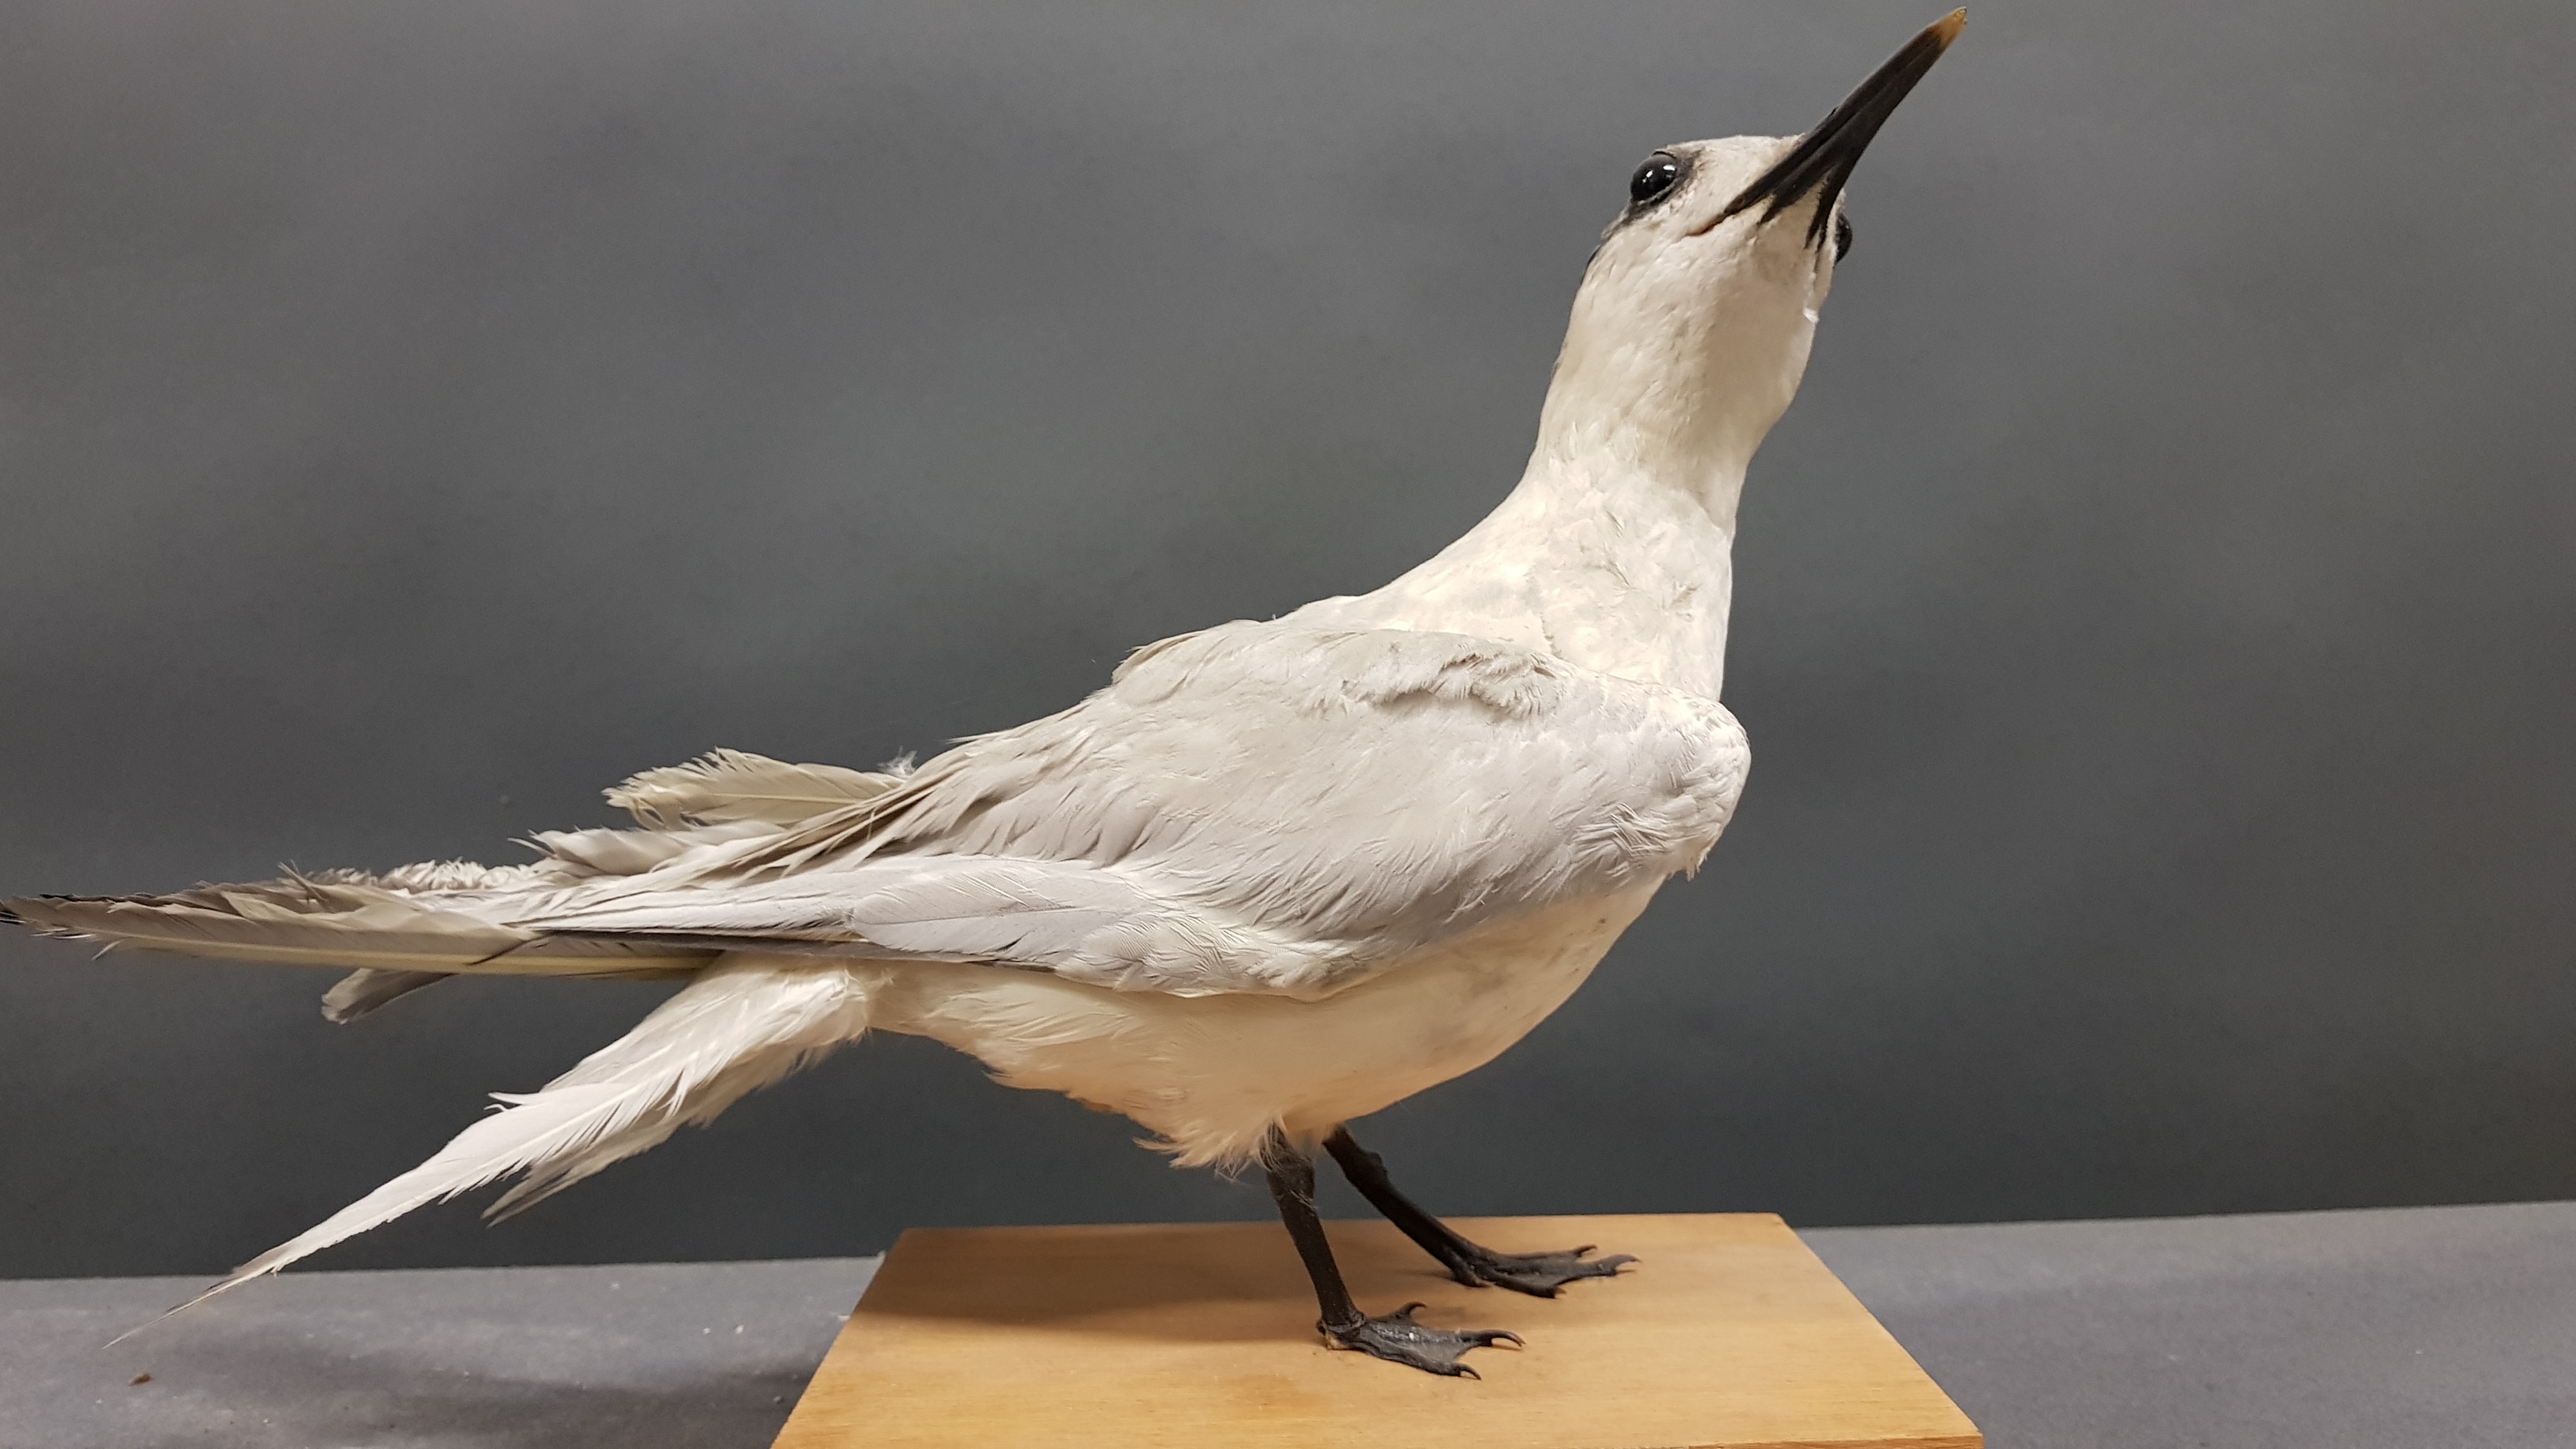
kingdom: Animalia
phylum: Chordata
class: Aves
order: Charadriiformes
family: Laridae
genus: Thalasseus
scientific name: Thalasseus sandvicensis
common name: Sandwich tern
